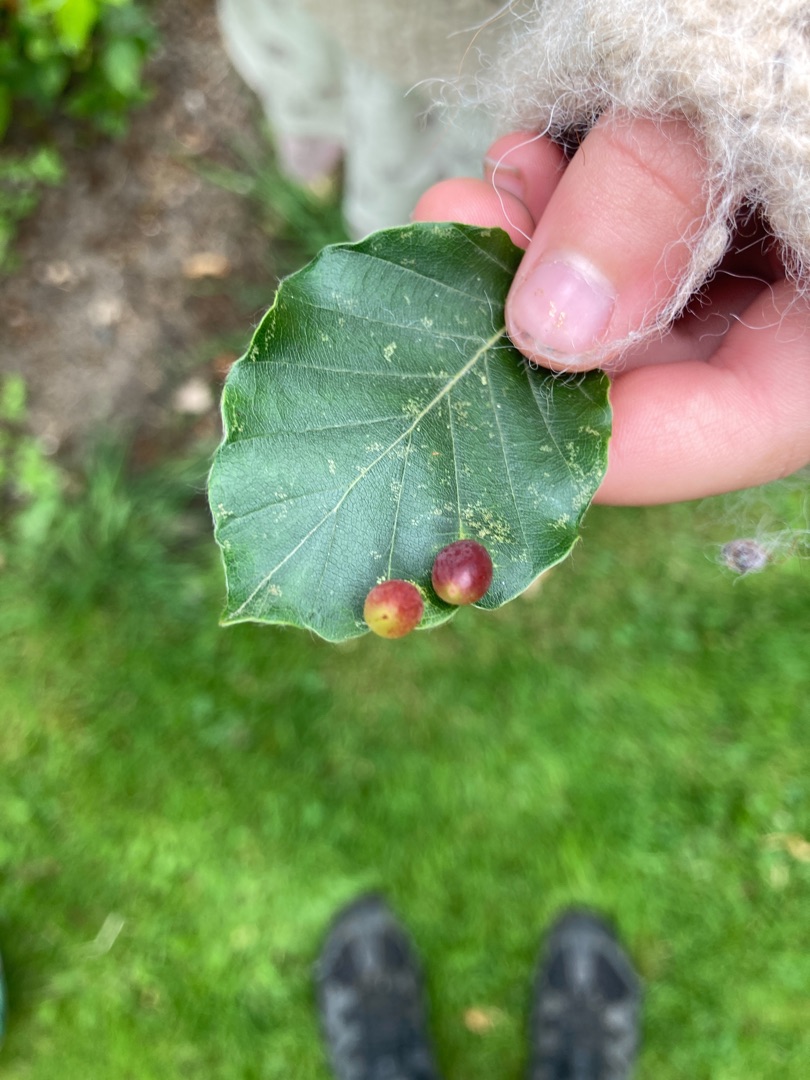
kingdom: Animalia
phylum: Arthropoda
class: Insecta
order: Diptera
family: Cecidomyiidae
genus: Mikiola
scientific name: Mikiola fagi
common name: Bøgegalmyg
